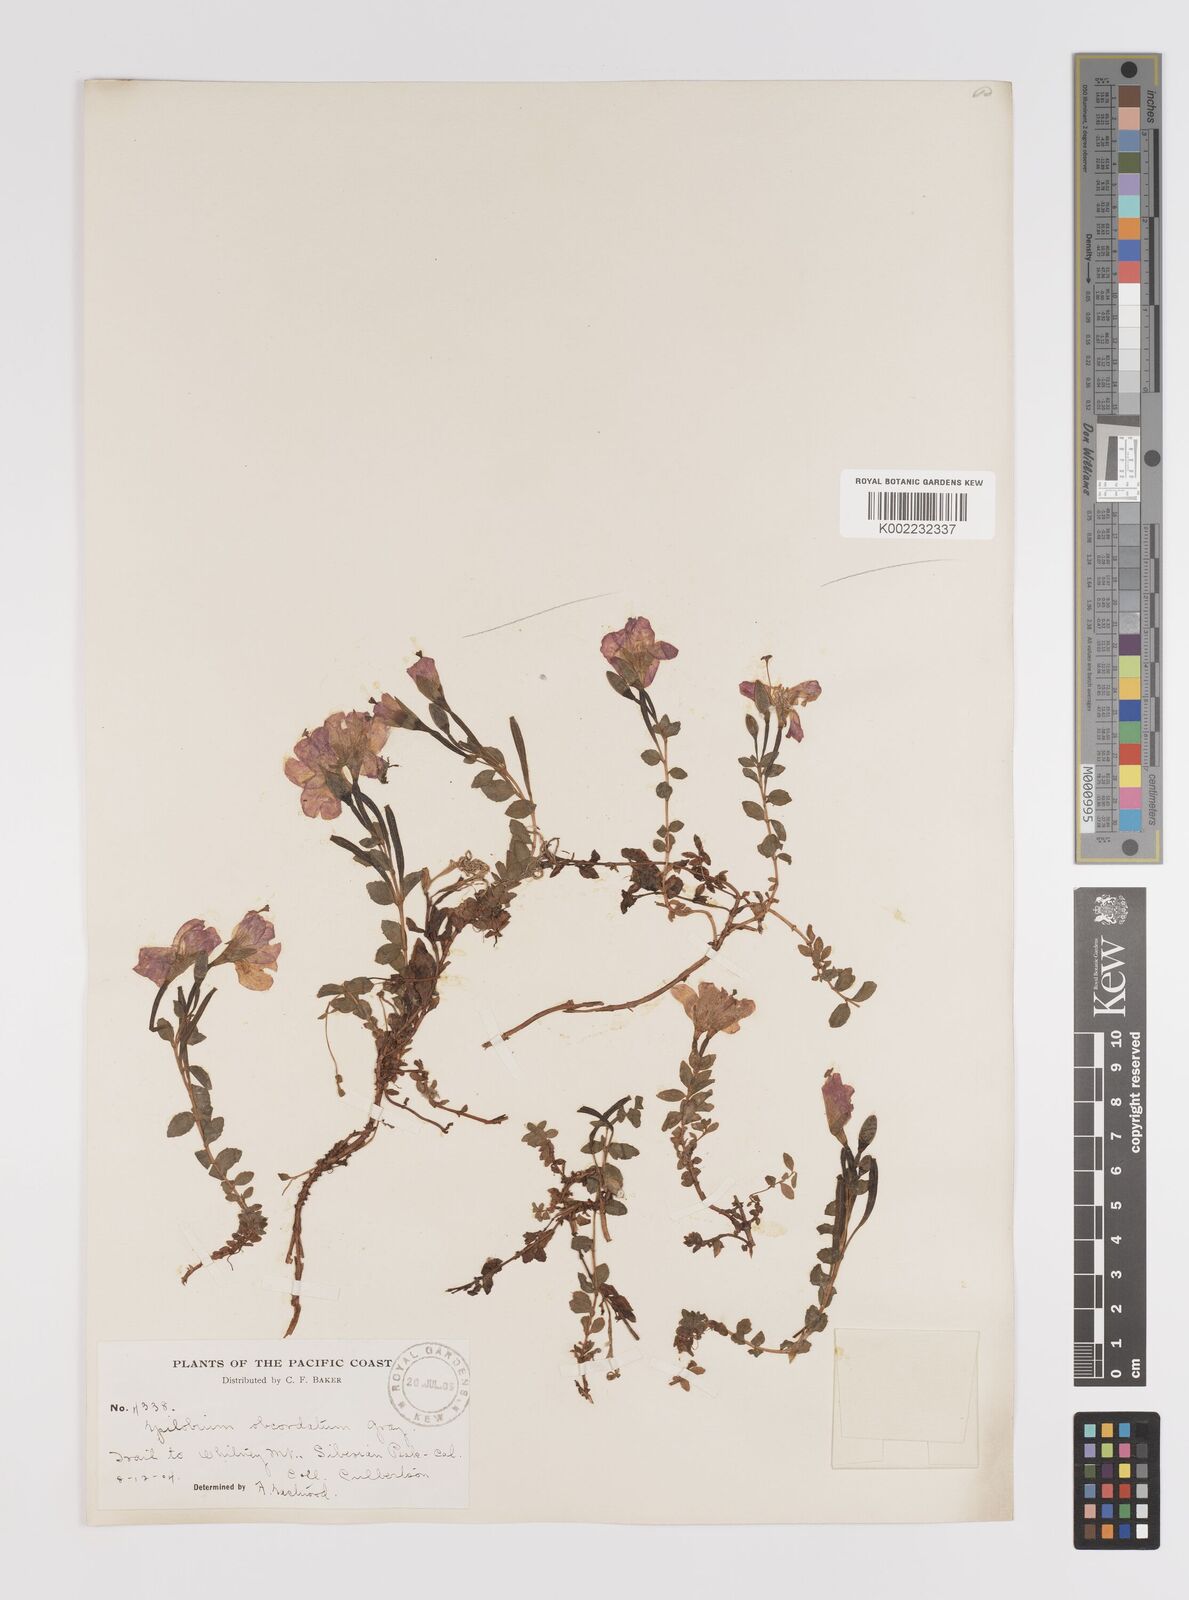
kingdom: Plantae
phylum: Tracheophyta
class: Magnoliopsida
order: Myrtales
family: Onagraceae
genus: Epilobium
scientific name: Epilobium obcordatum
